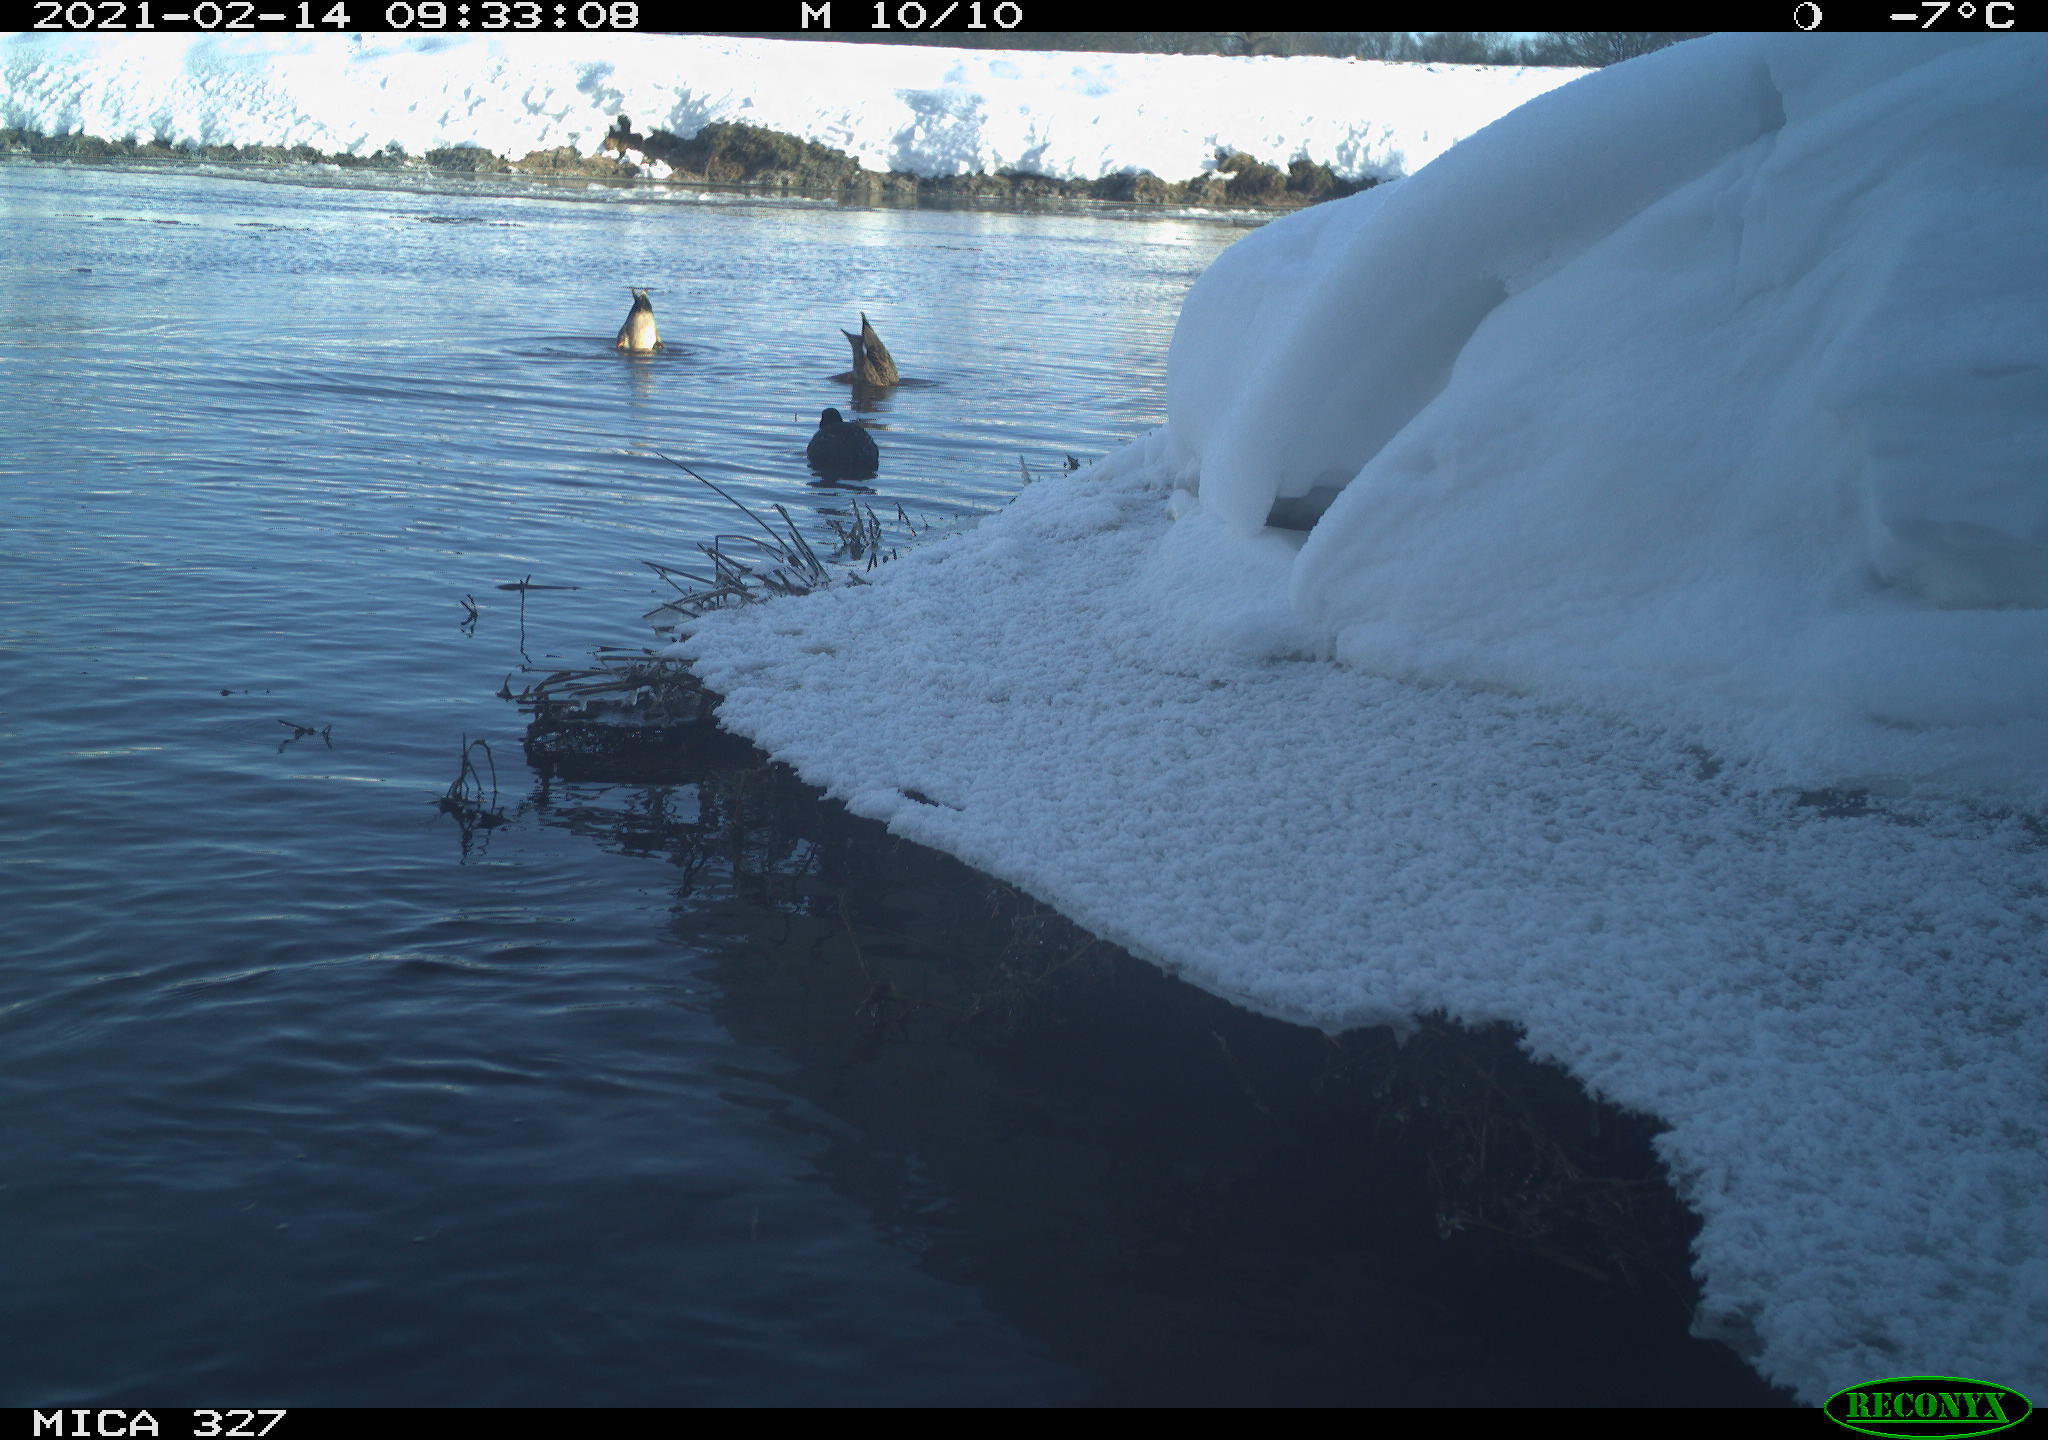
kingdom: Animalia
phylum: Chordata
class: Aves
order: Anseriformes
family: Anatidae
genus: Anas
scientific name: Anas
